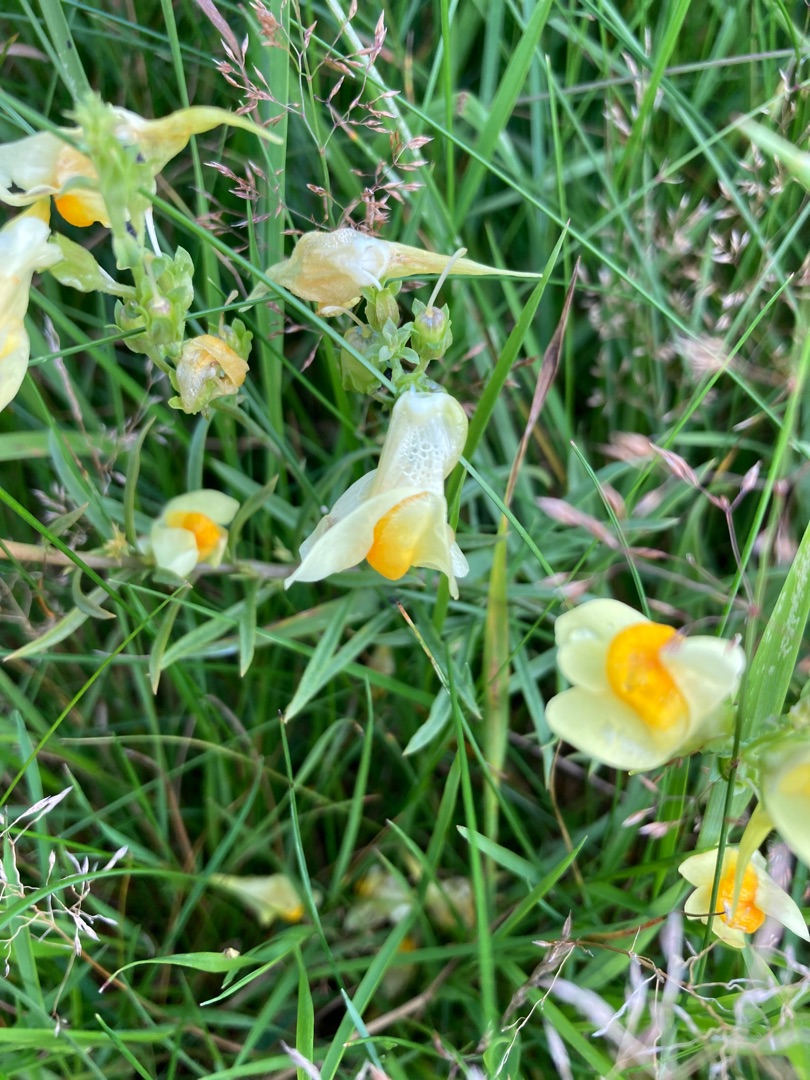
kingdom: Plantae
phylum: Tracheophyta
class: Magnoliopsida
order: Lamiales
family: Plantaginaceae
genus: Linaria
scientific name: Linaria vulgaris
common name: Almindelig torskemund
